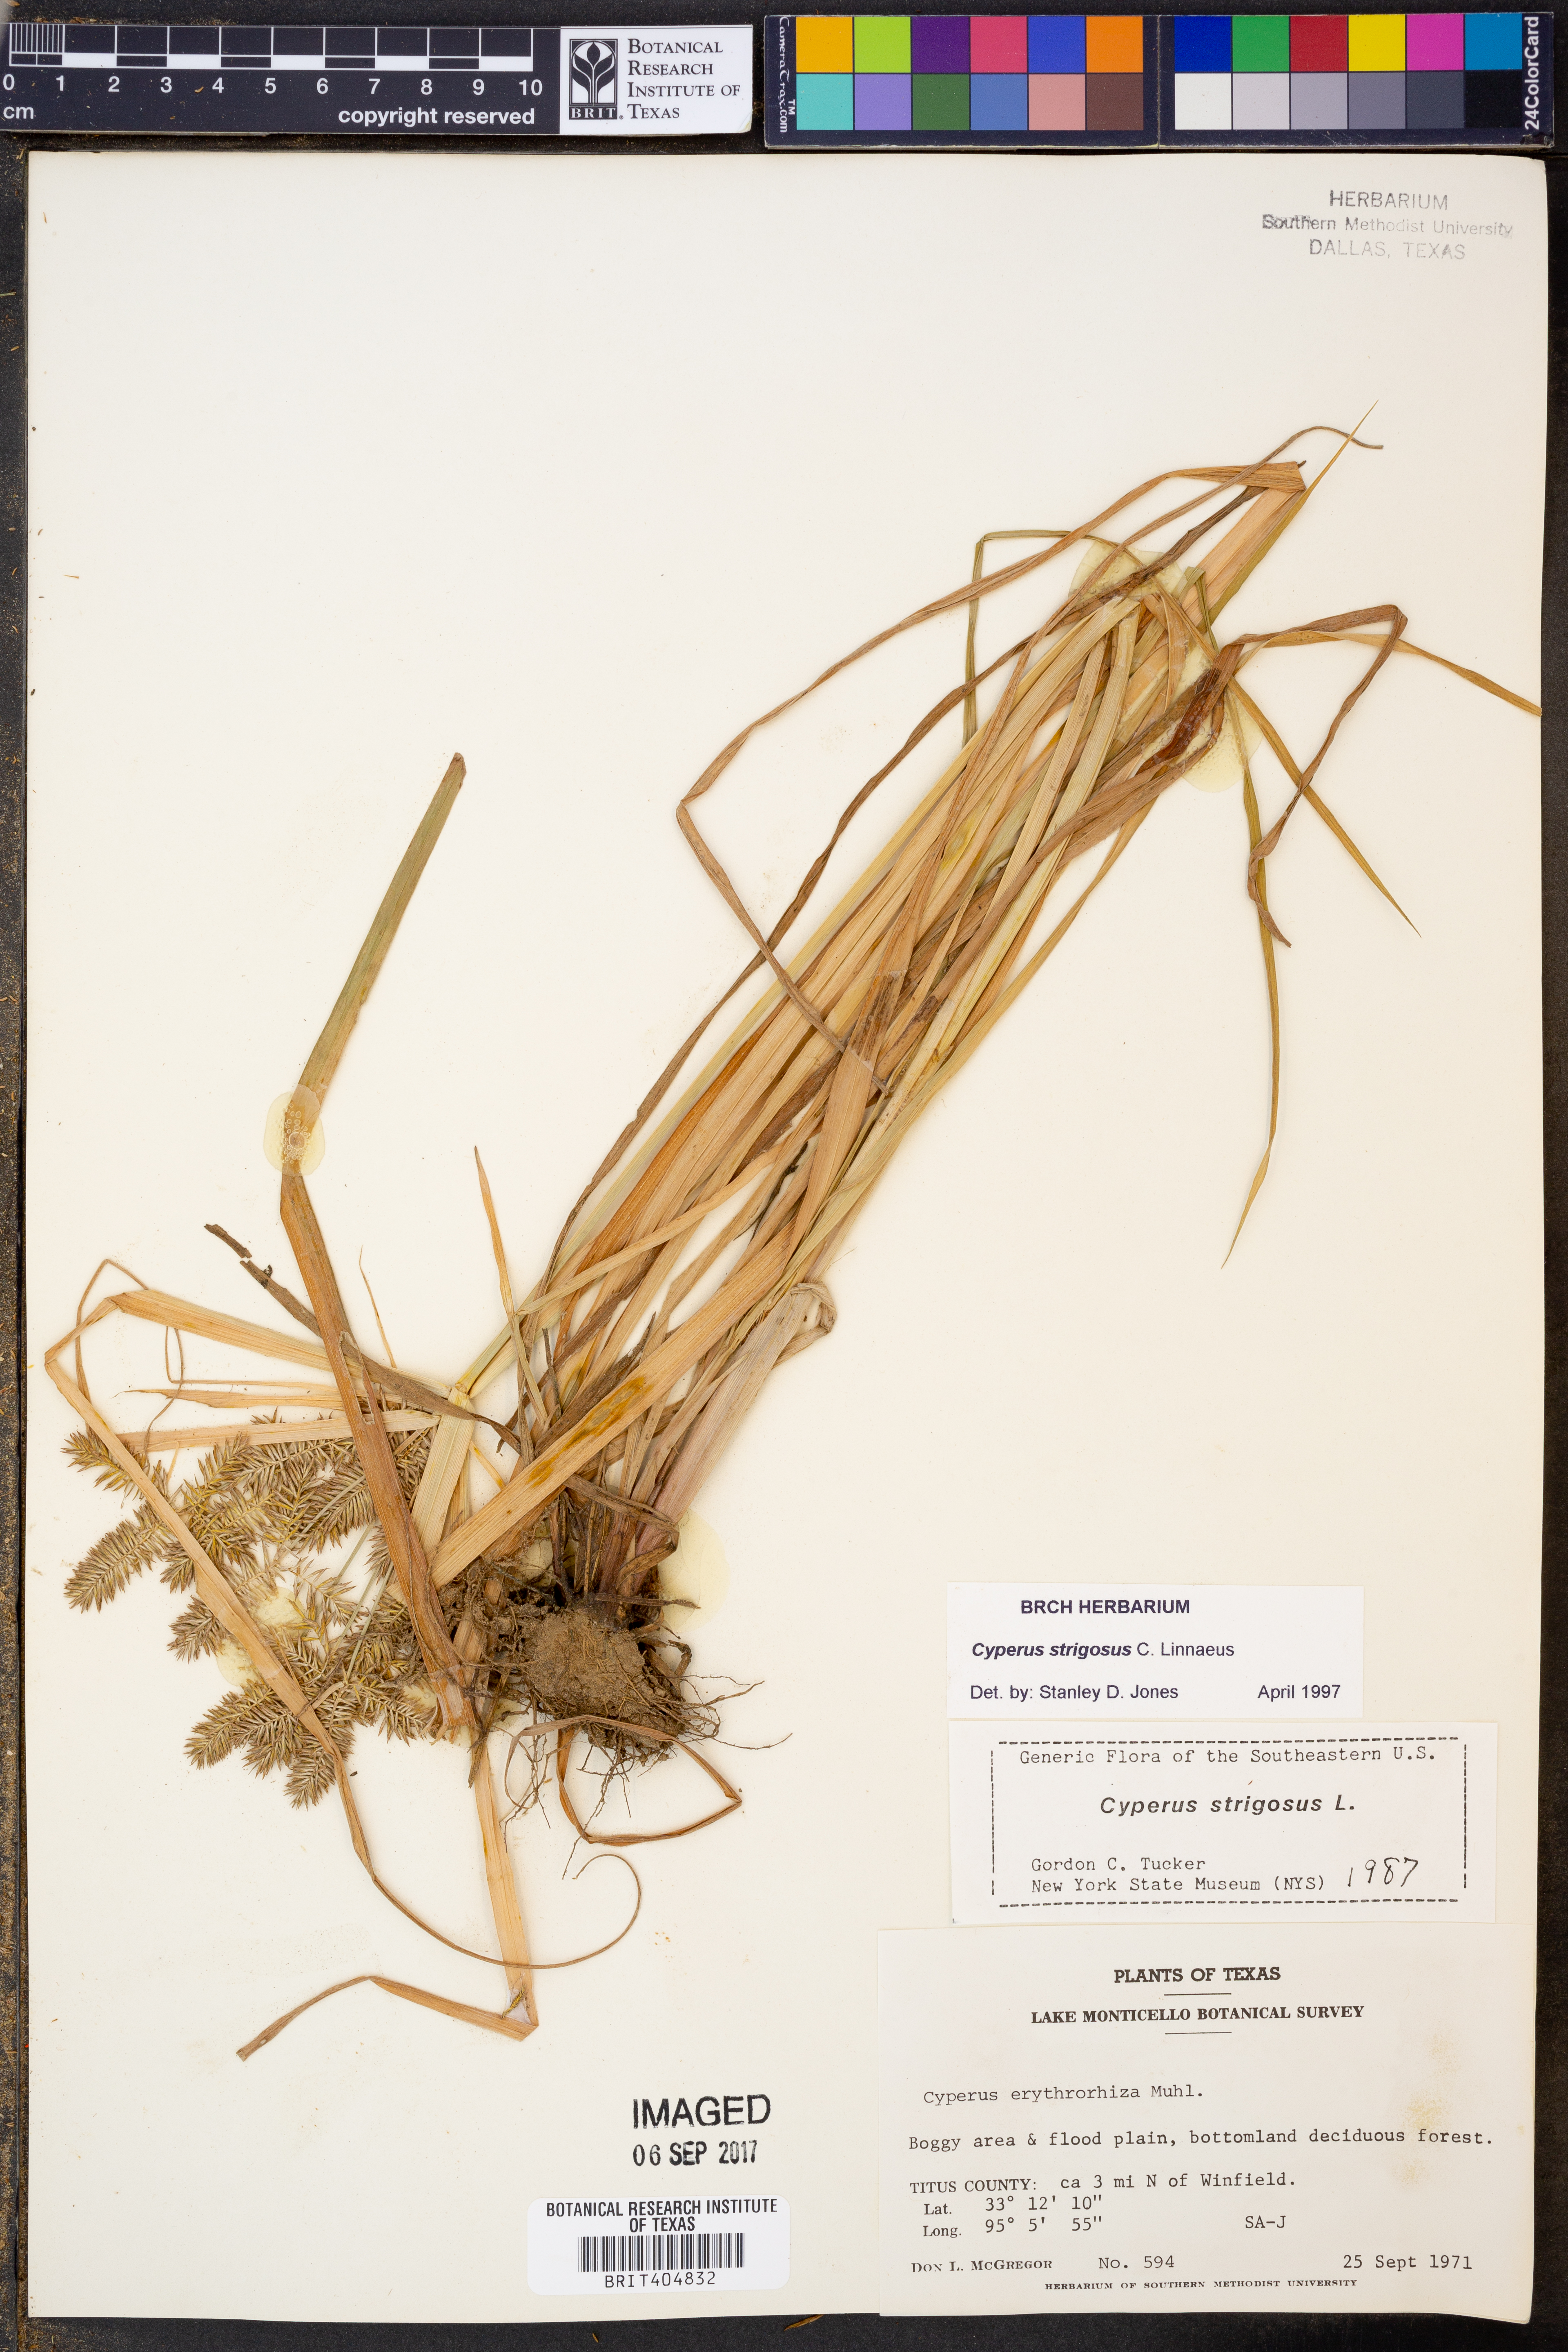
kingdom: Plantae
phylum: Tracheophyta
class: Liliopsida
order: Poales
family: Cyperaceae
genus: Cyperus
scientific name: Cyperus strigosus
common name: False nutsedge
